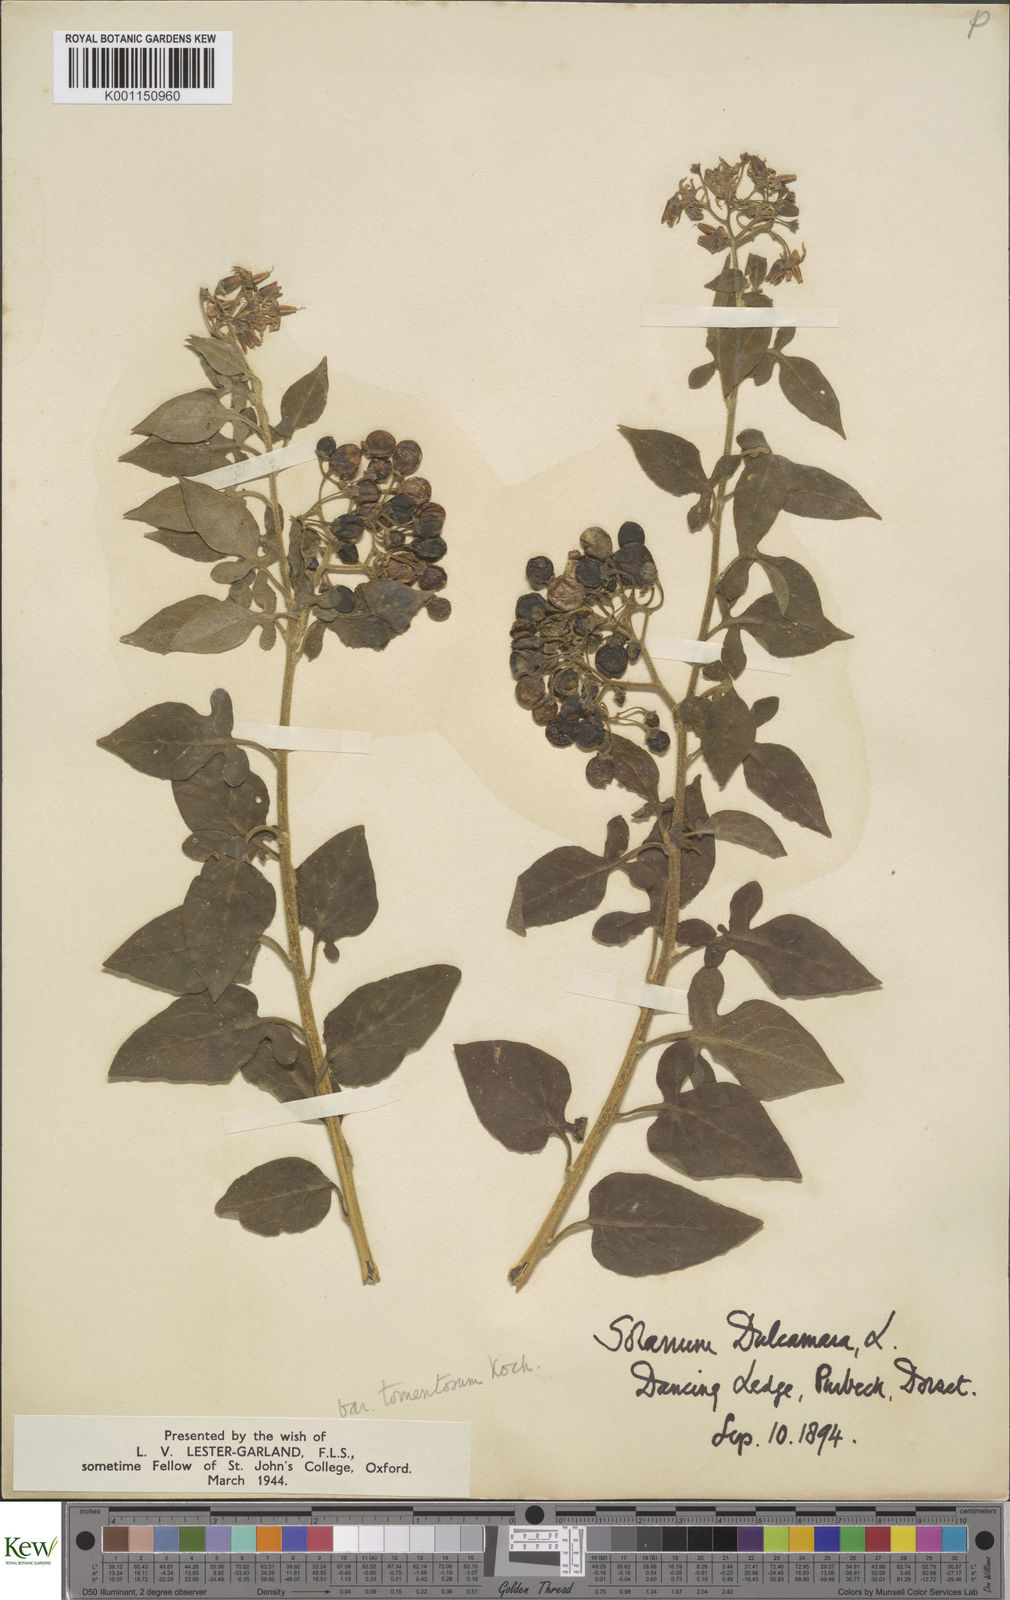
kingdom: Plantae
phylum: Tracheophyta
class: Magnoliopsida
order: Solanales
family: Solanaceae
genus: Solanum
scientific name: Solanum dulcamara
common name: Climbing nightshade
